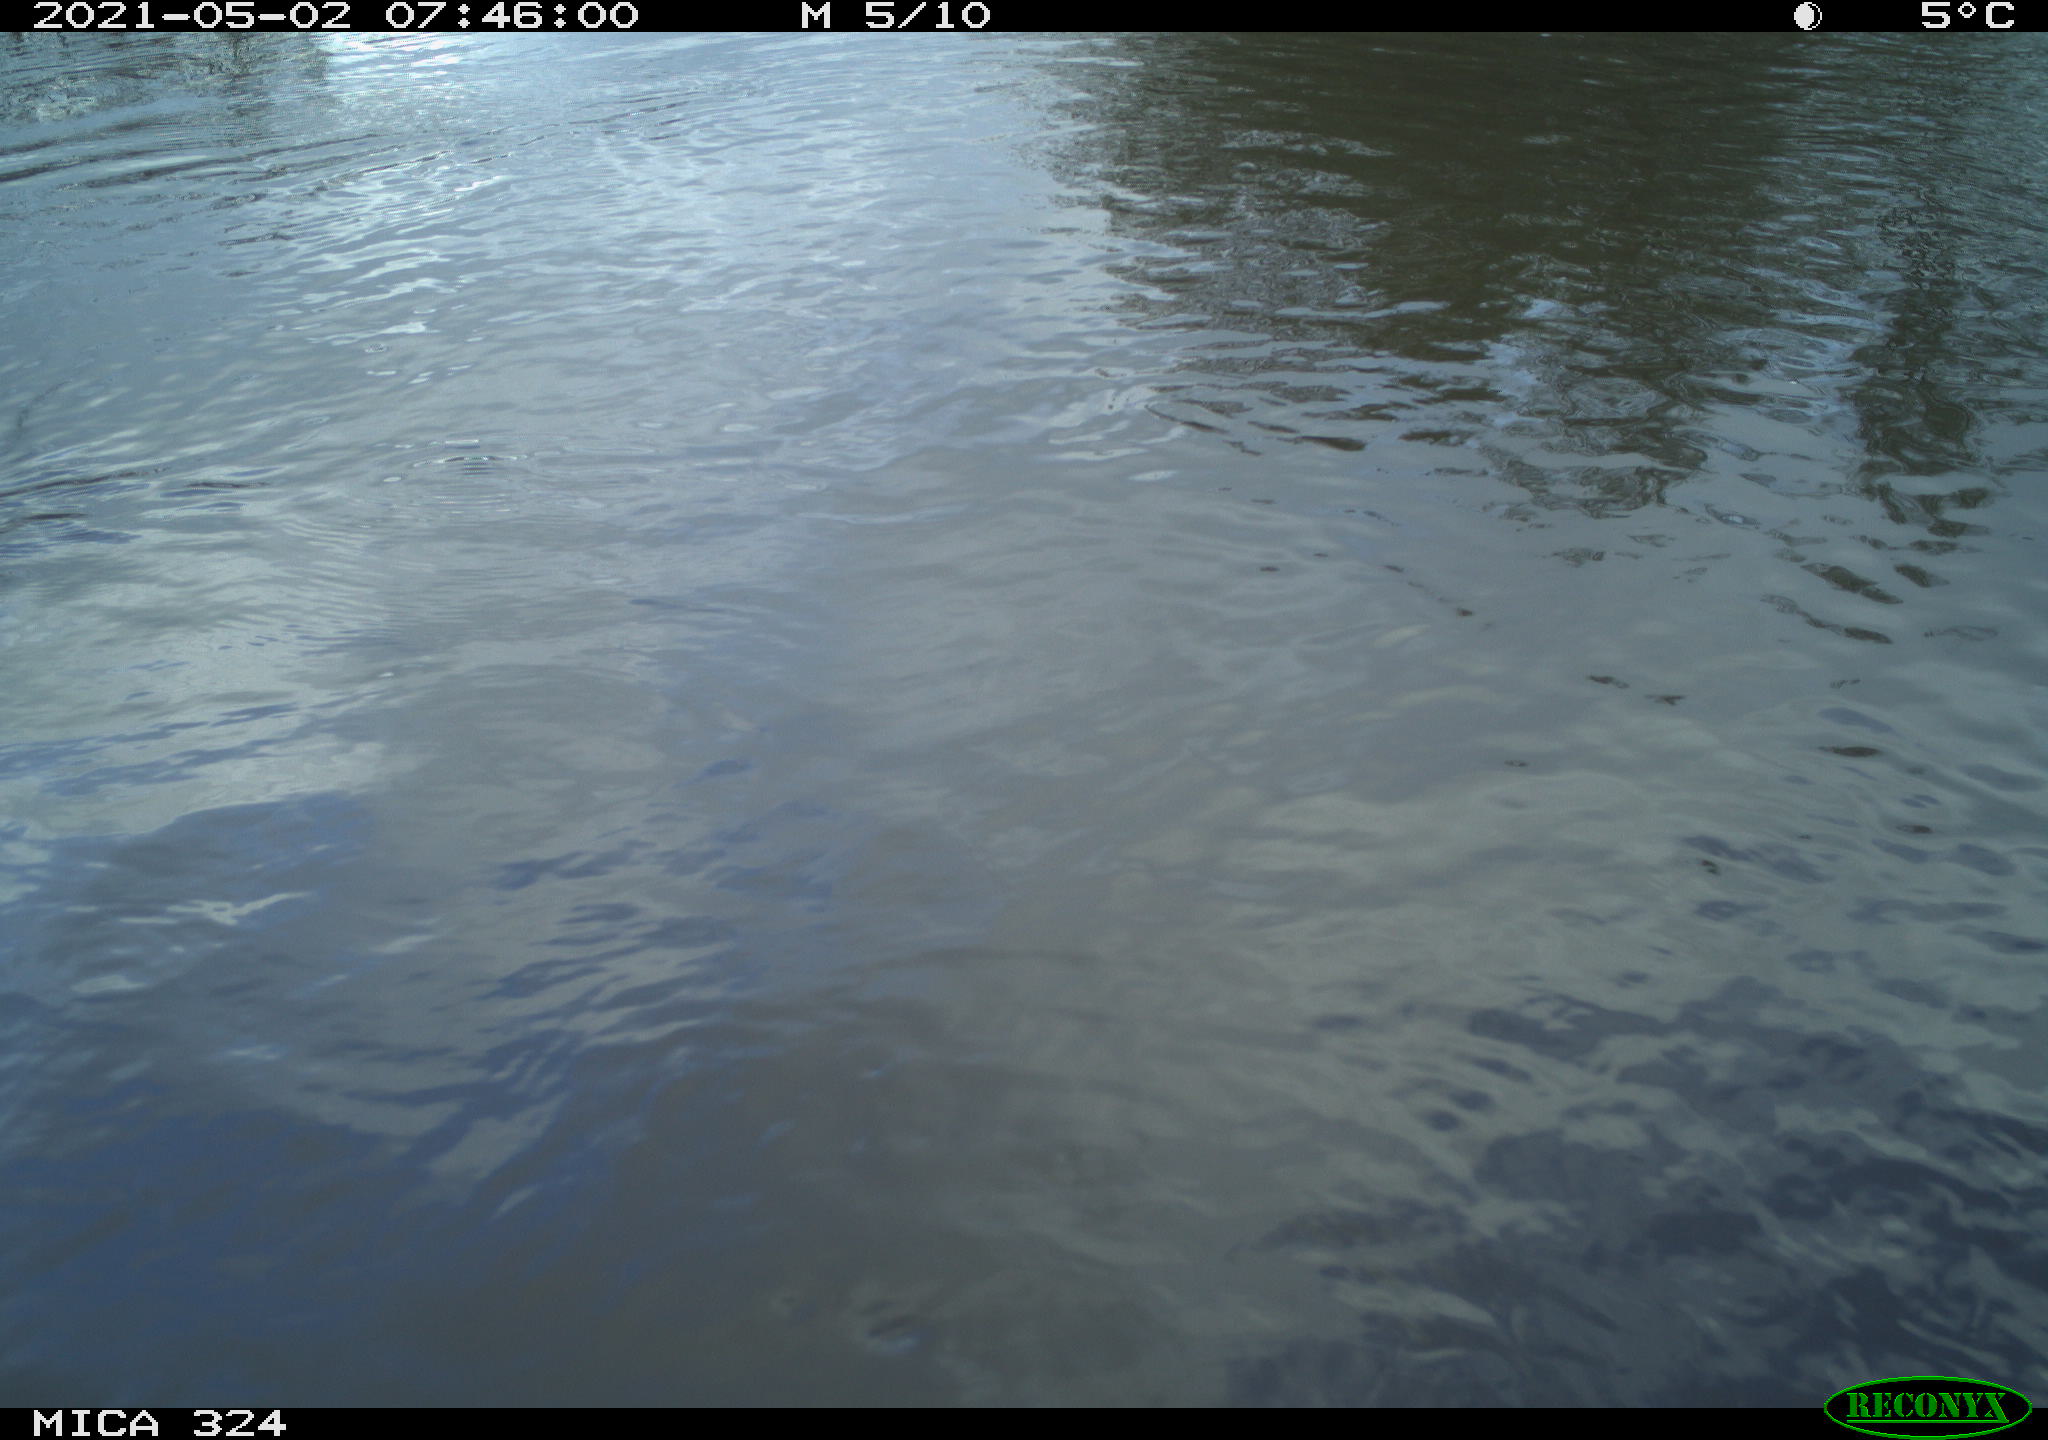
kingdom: Animalia
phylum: Chordata
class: Aves
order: Gruiformes
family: Rallidae
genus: Gallinula
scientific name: Gallinula chloropus
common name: Common moorhen
